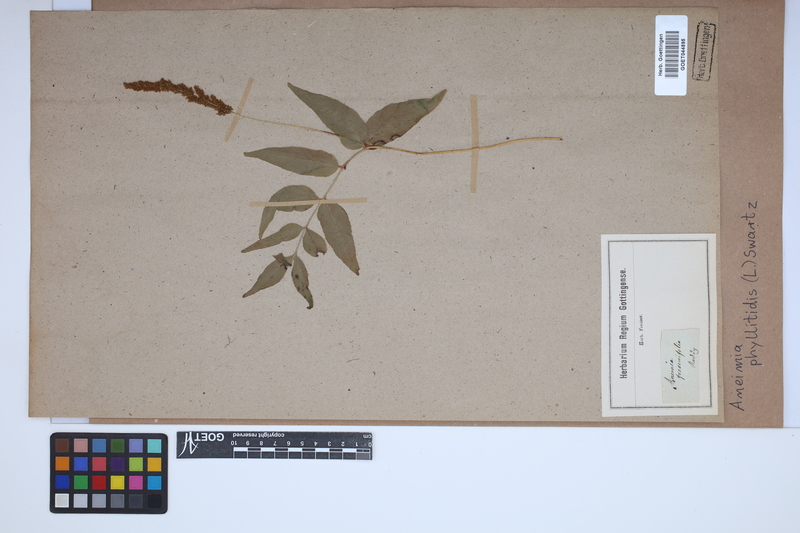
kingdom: Plantae
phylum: Tracheophyta
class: Polypodiopsida
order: Schizaeales
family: Anemiaceae
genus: Anemia
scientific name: Anemia phyllitidis
